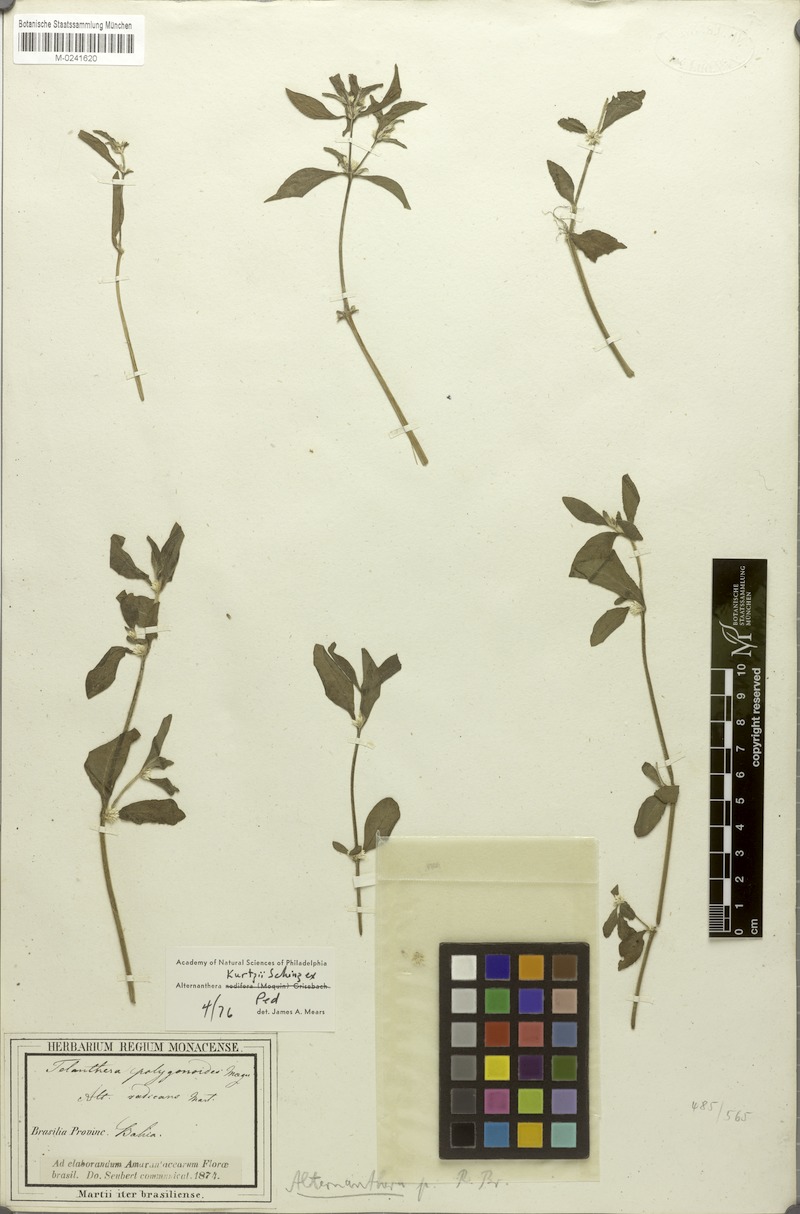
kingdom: Plantae
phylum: Tracheophyta
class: Magnoliopsida
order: Caryophyllales
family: Amaranthaceae
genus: Alternanthera
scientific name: Alternanthera ficoidea
